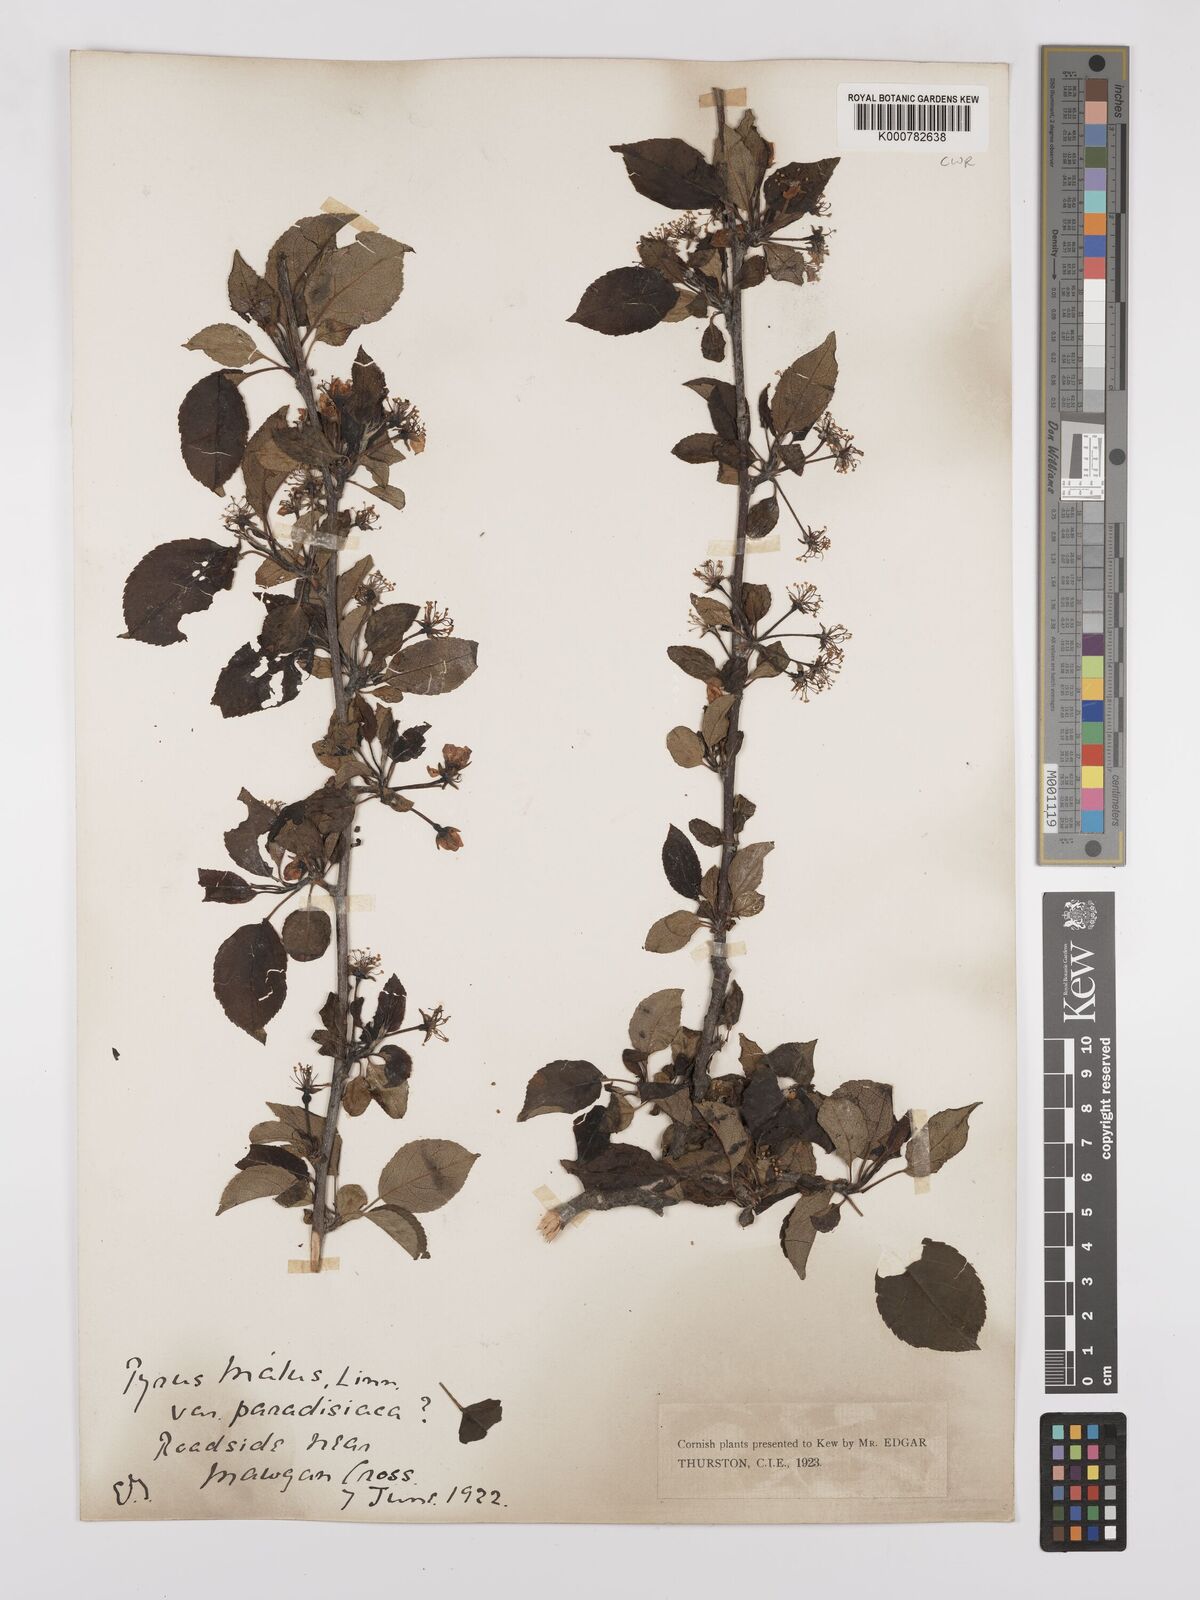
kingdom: Plantae
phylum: Tracheophyta
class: Magnoliopsida
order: Rosales
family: Rosaceae
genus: Malus
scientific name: Malus domestica
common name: Apple
